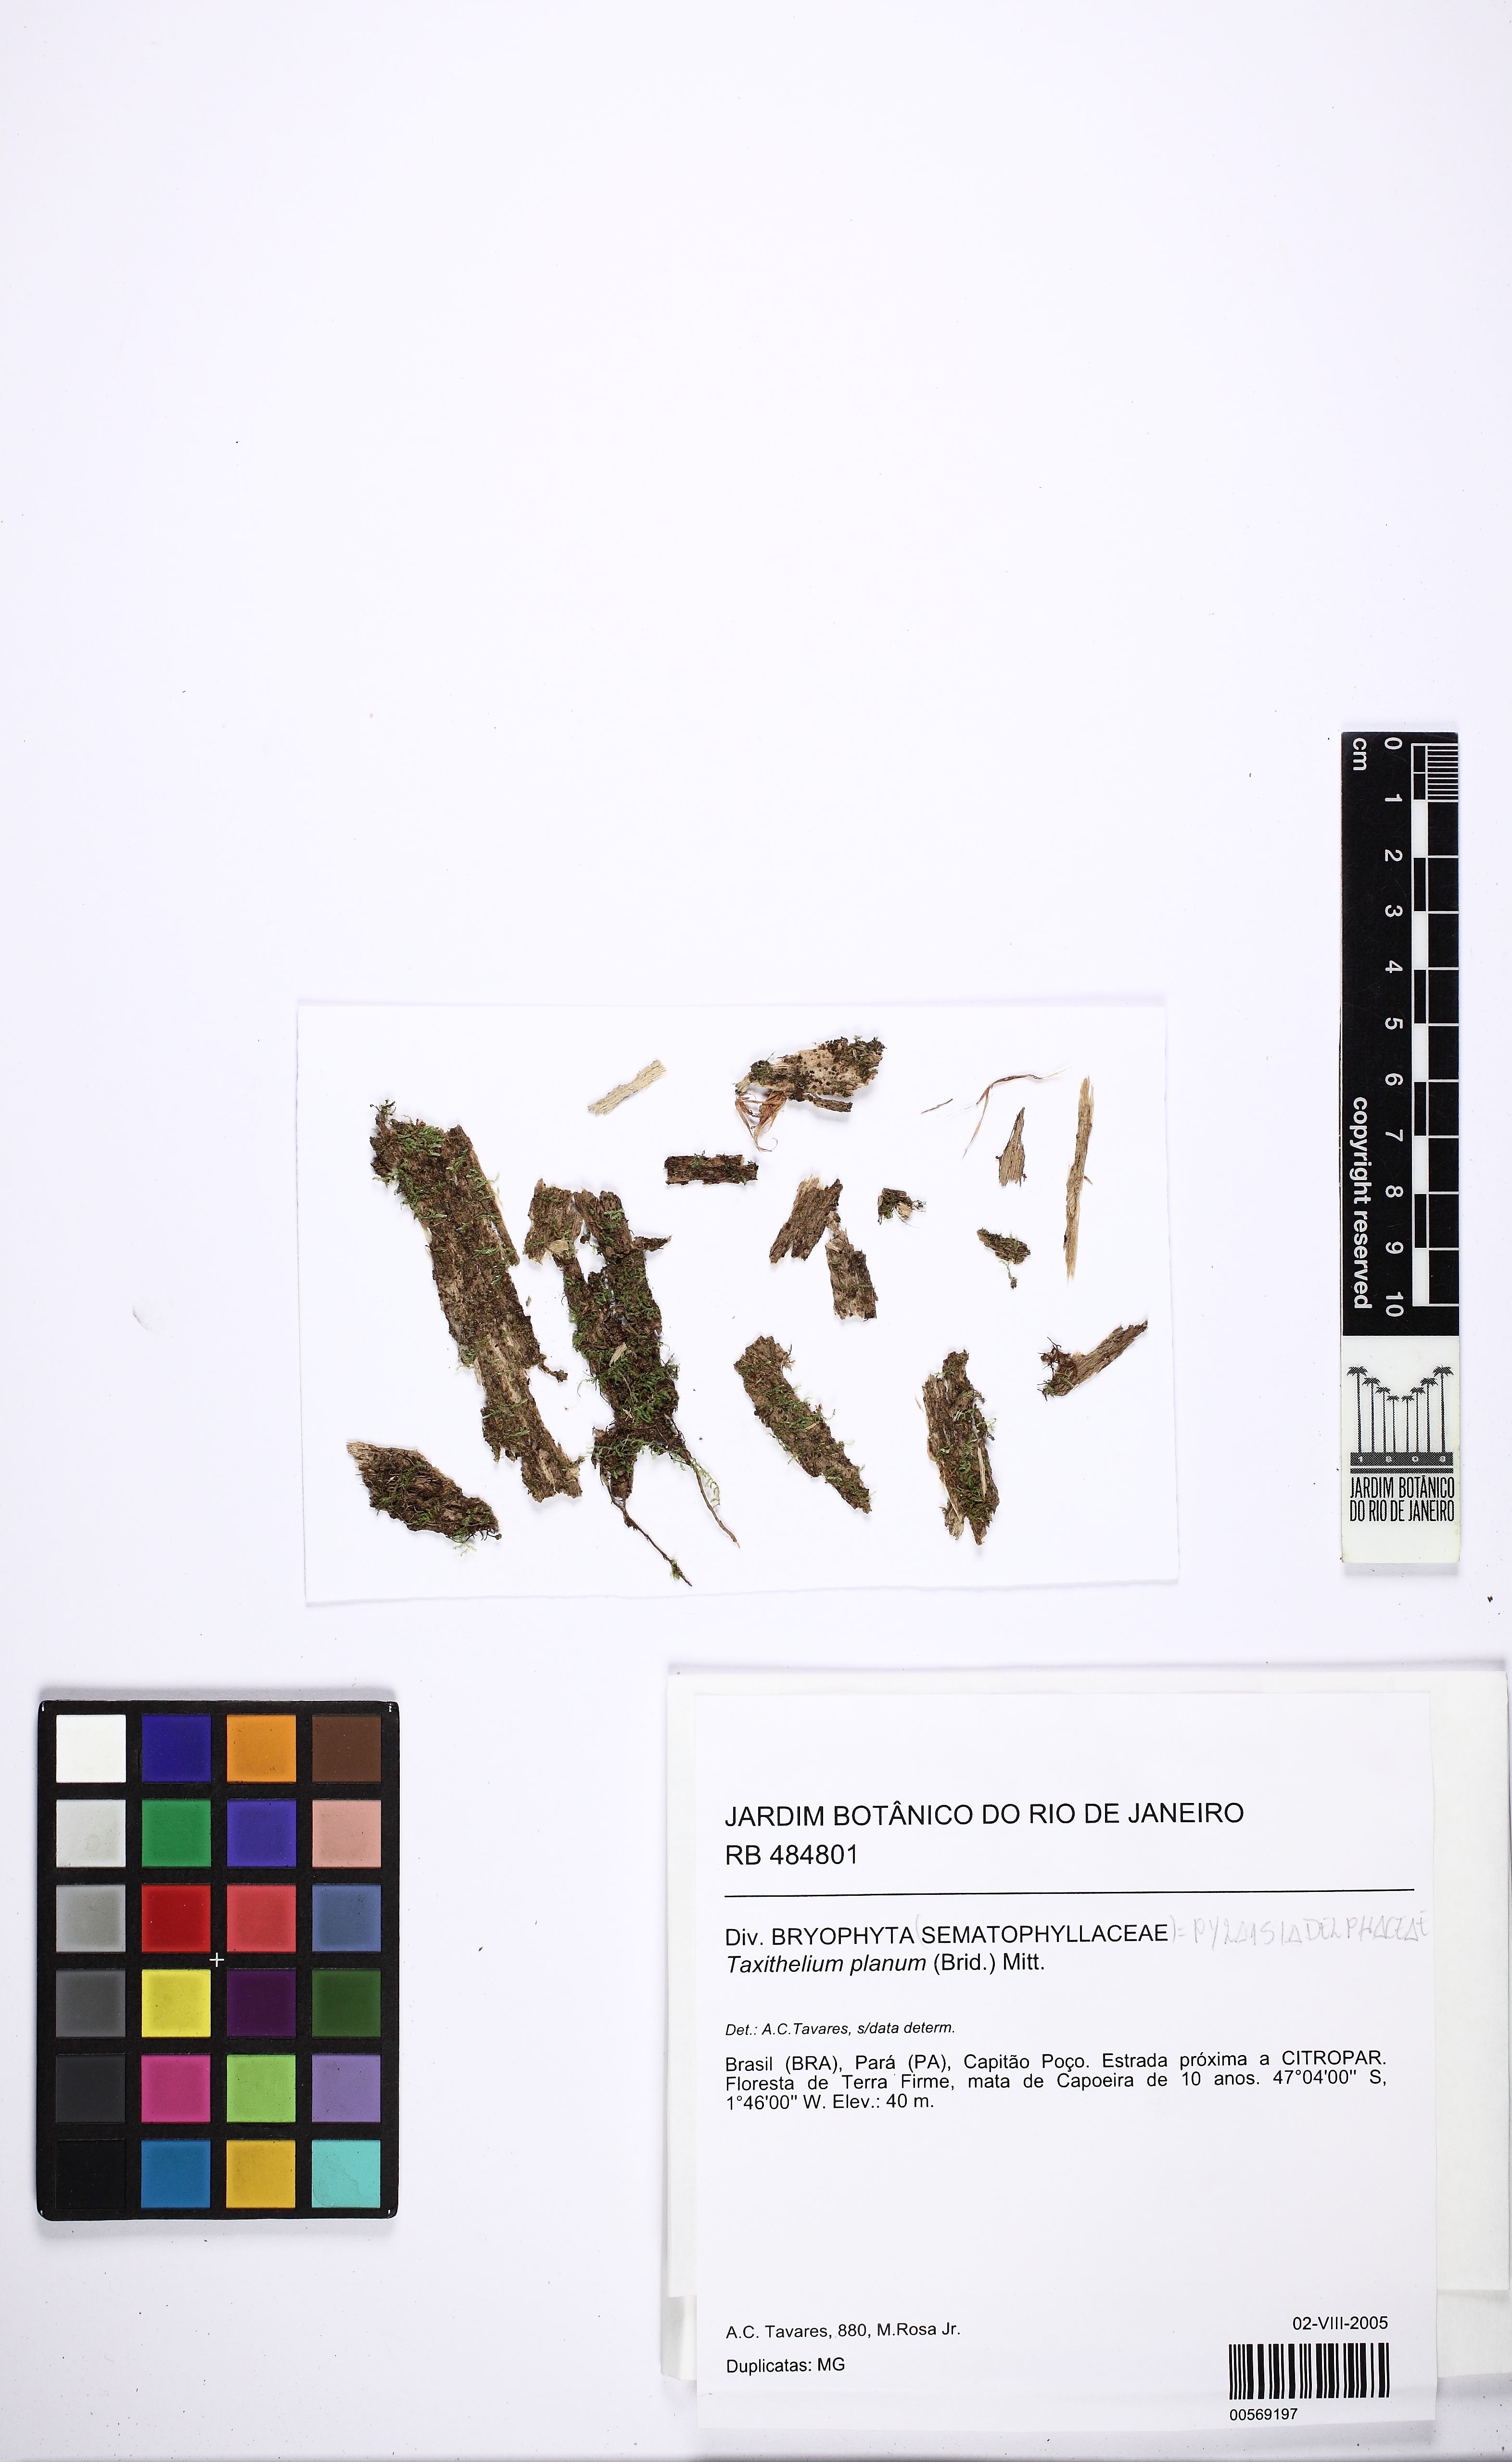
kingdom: Plantae
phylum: Bryophyta
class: Bryopsida
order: Hypnales
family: Pylaisiadelphaceae
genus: Taxithelium
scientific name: Taxithelium planum
